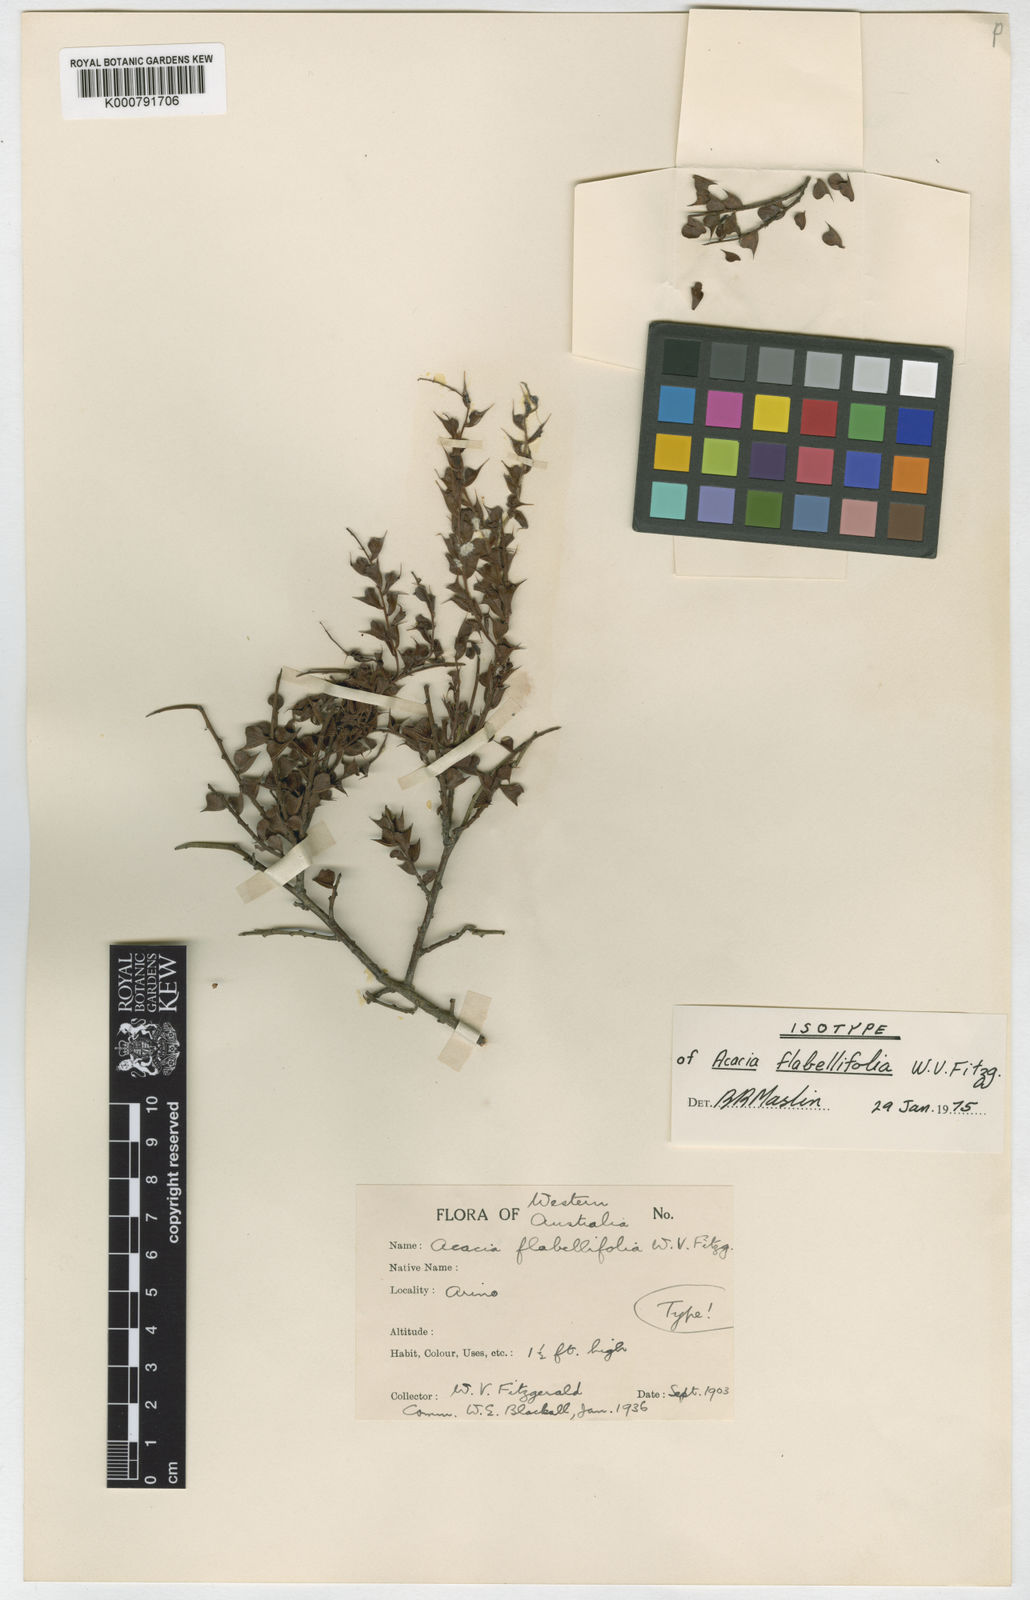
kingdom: Plantae
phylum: Tracheophyta
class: Magnoliopsida
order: Fabales
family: Fabaceae
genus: Acacia
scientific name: Acacia flabellifolia
